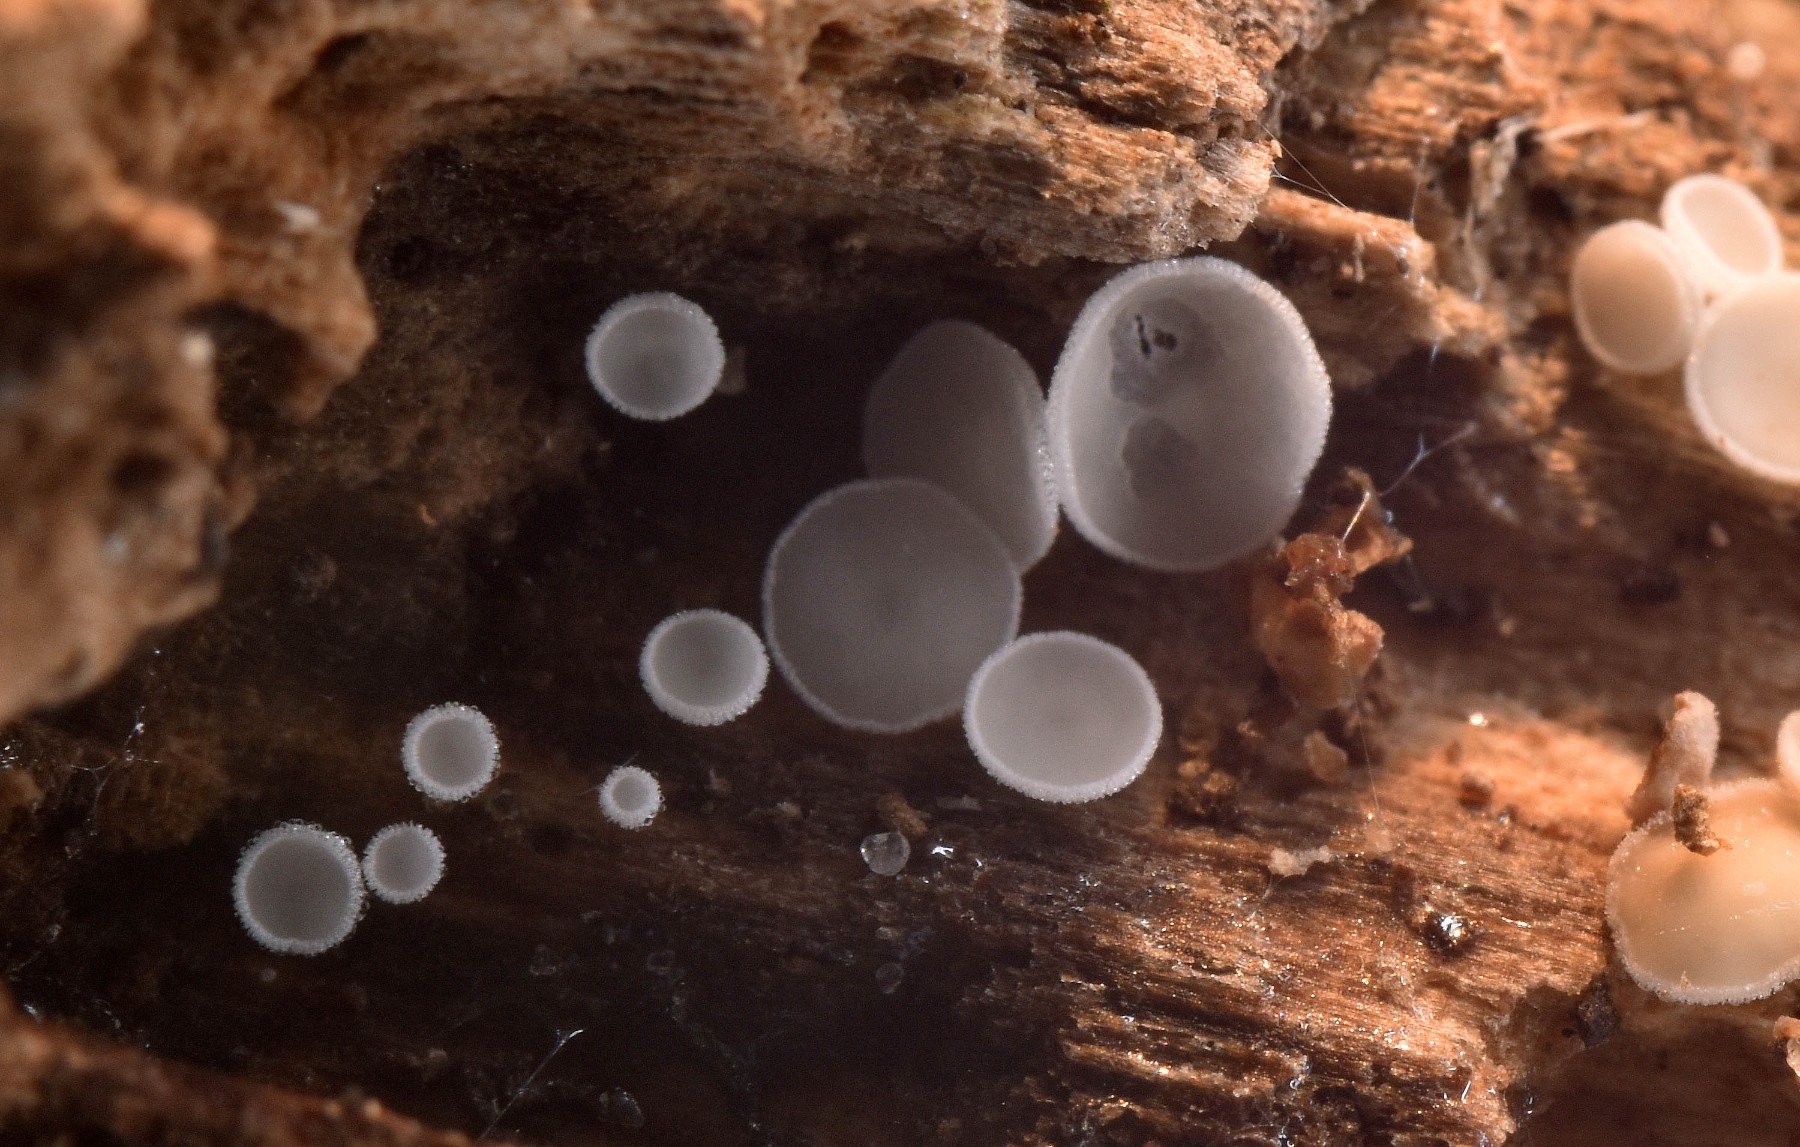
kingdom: Fungi
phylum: Ascomycota
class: Leotiomycetes
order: Helotiales
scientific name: Helotiales
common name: stilkskiveordenen
